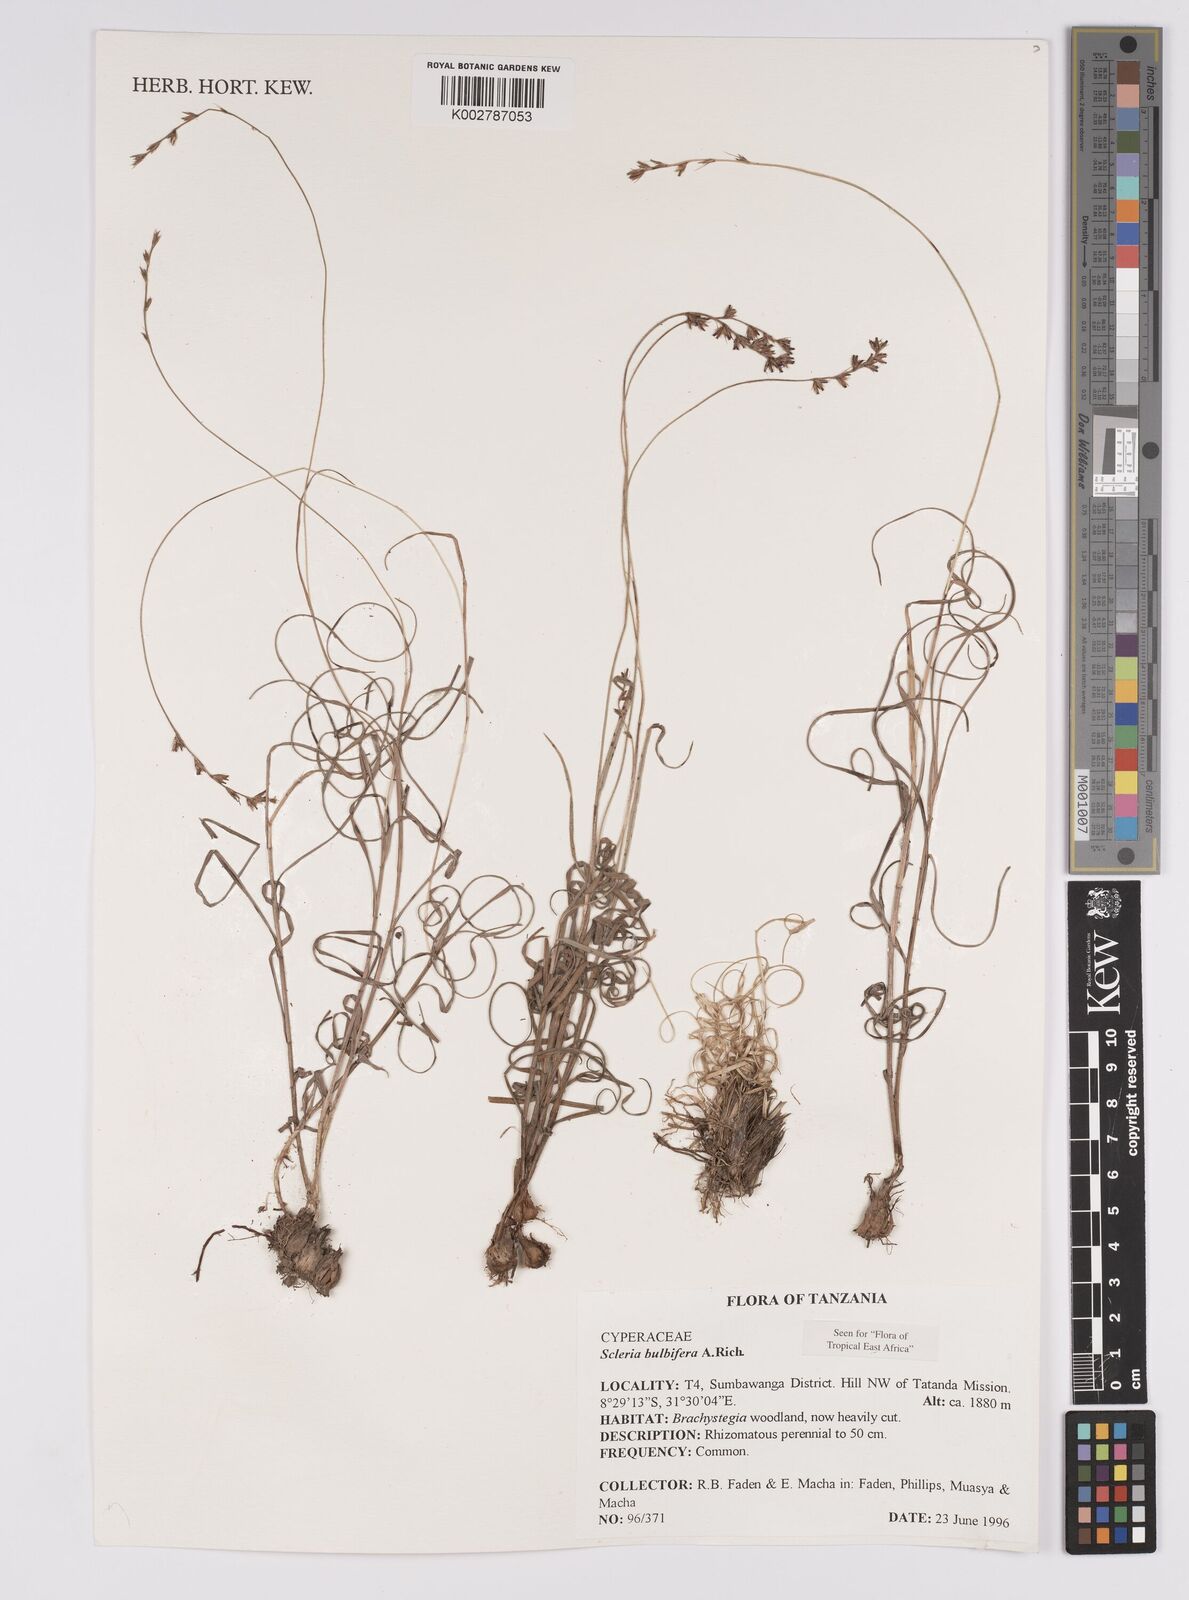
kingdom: Plantae
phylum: Tracheophyta
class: Liliopsida
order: Poales
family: Cyperaceae
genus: Scleria
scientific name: Scleria bulbifera
